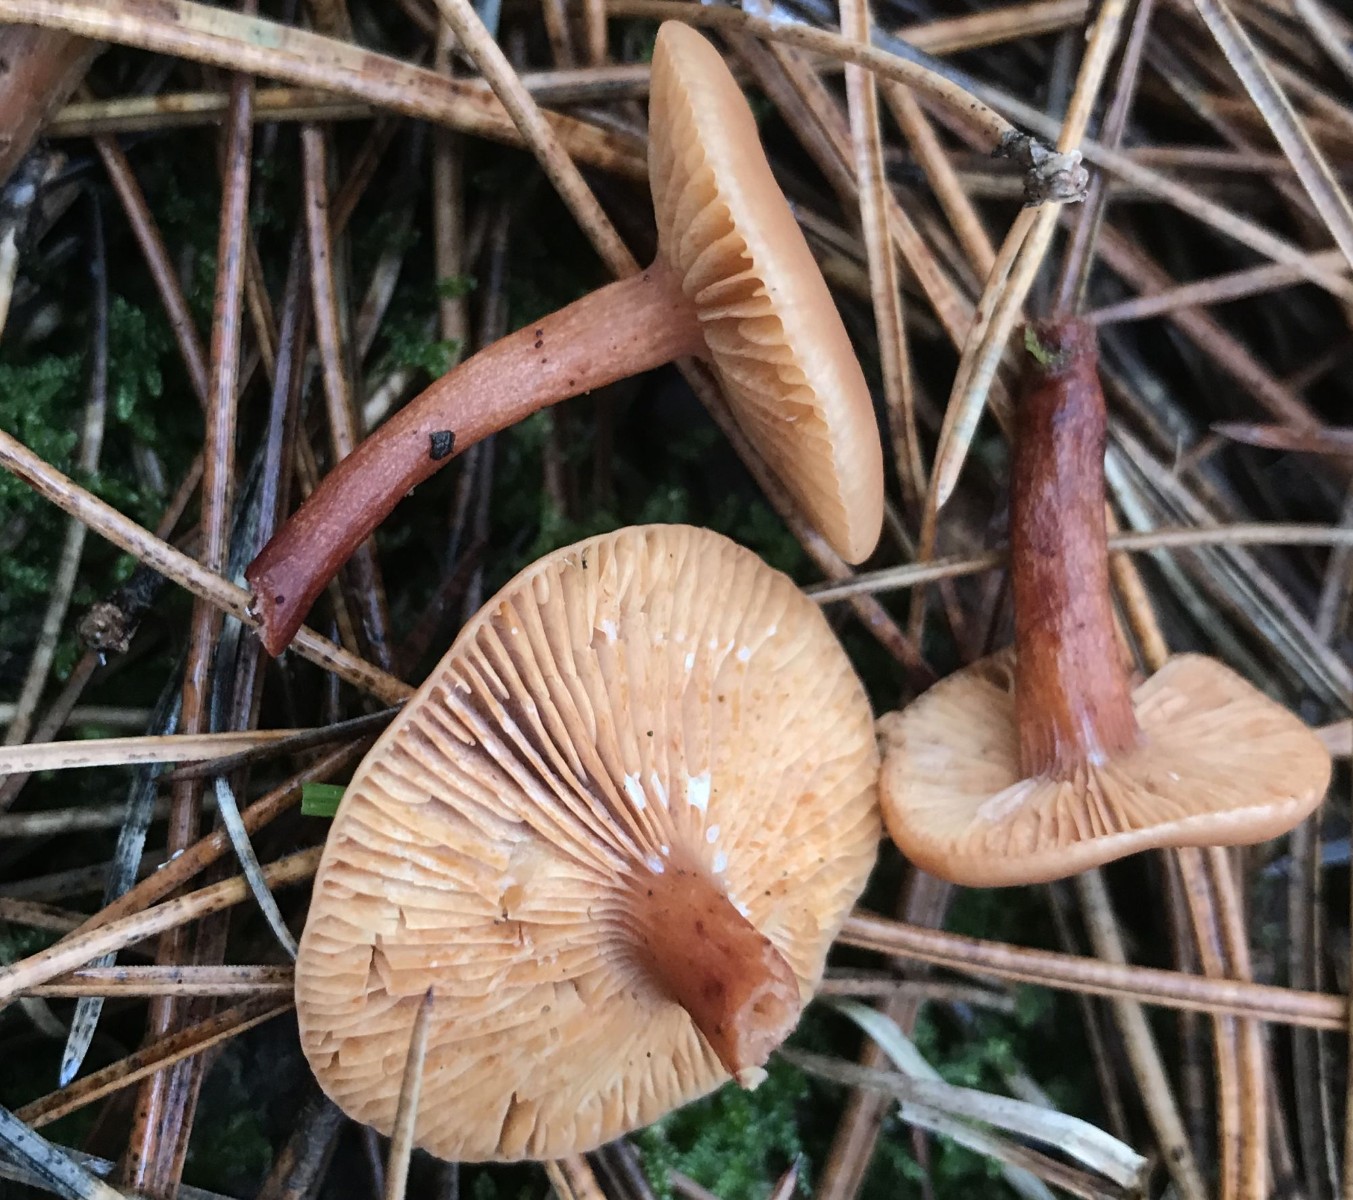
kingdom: Fungi
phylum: Basidiomycota
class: Agaricomycetes
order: Russulales
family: Russulaceae
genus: Lactarius
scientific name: Lactarius
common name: mælkehat
